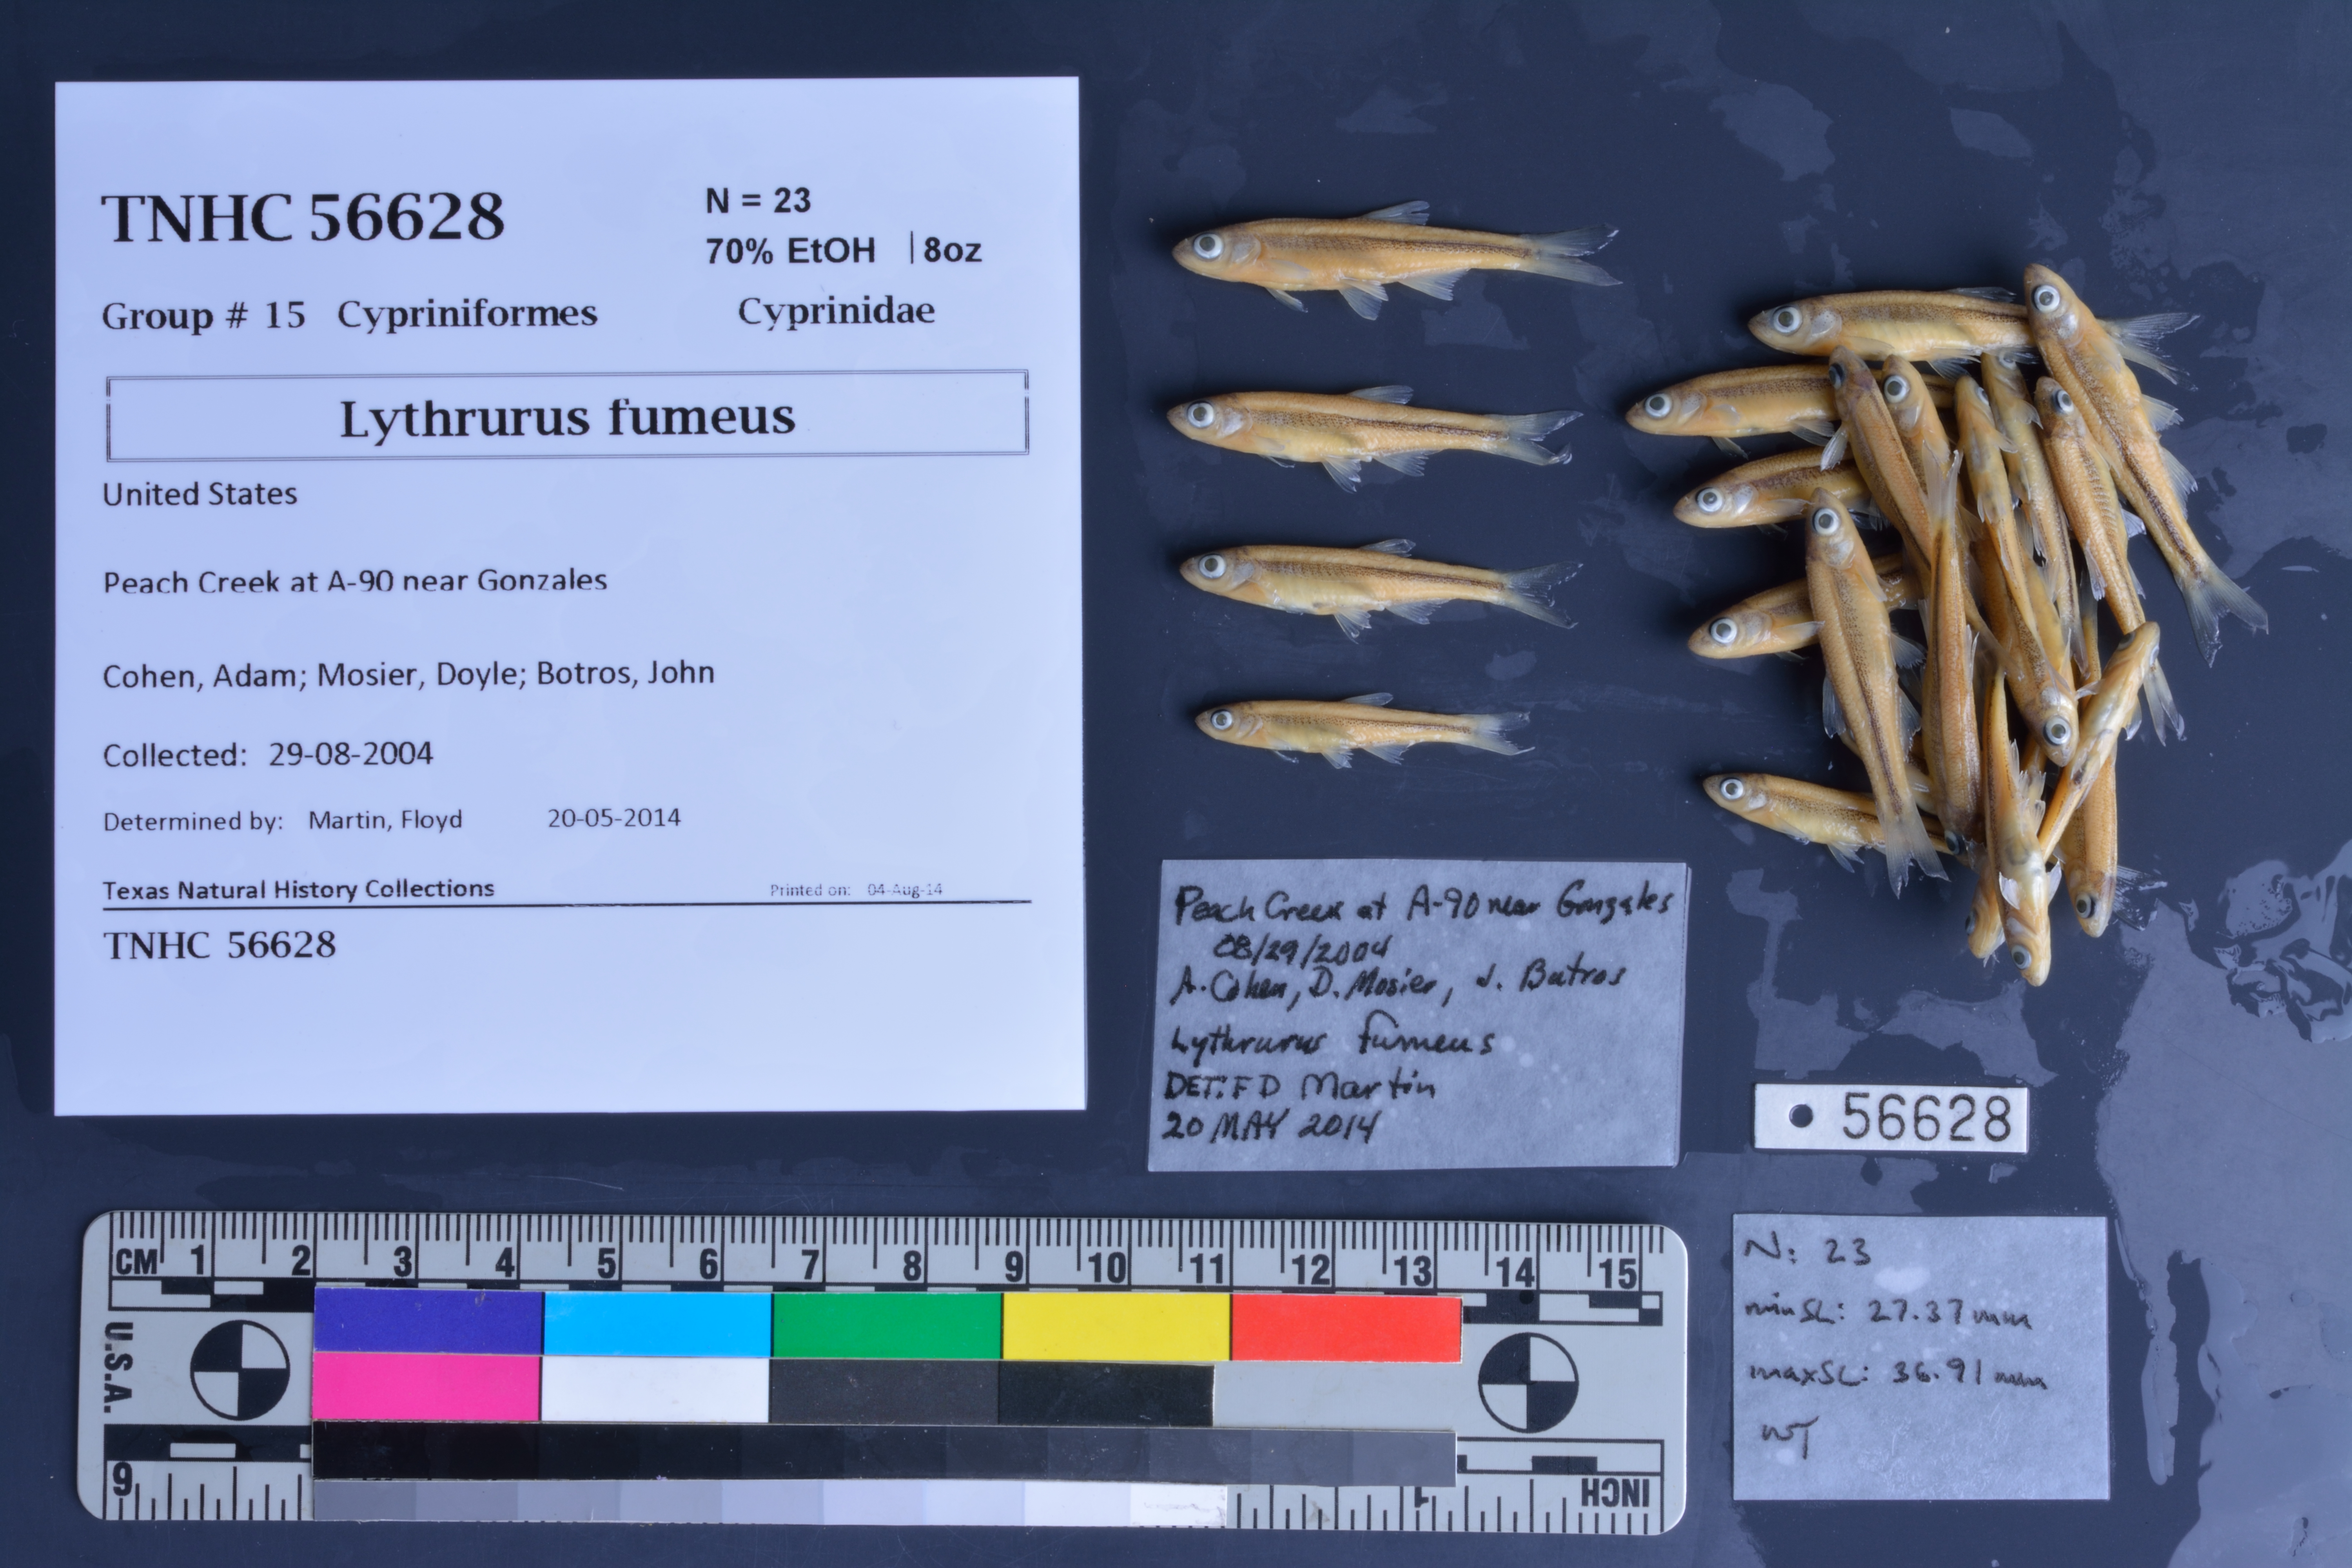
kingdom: Animalia
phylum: Chordata
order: Cypriniformes
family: Cyprinidae
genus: Lythrurus
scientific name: Lythrurus fumeus
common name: Ribbon shiner
